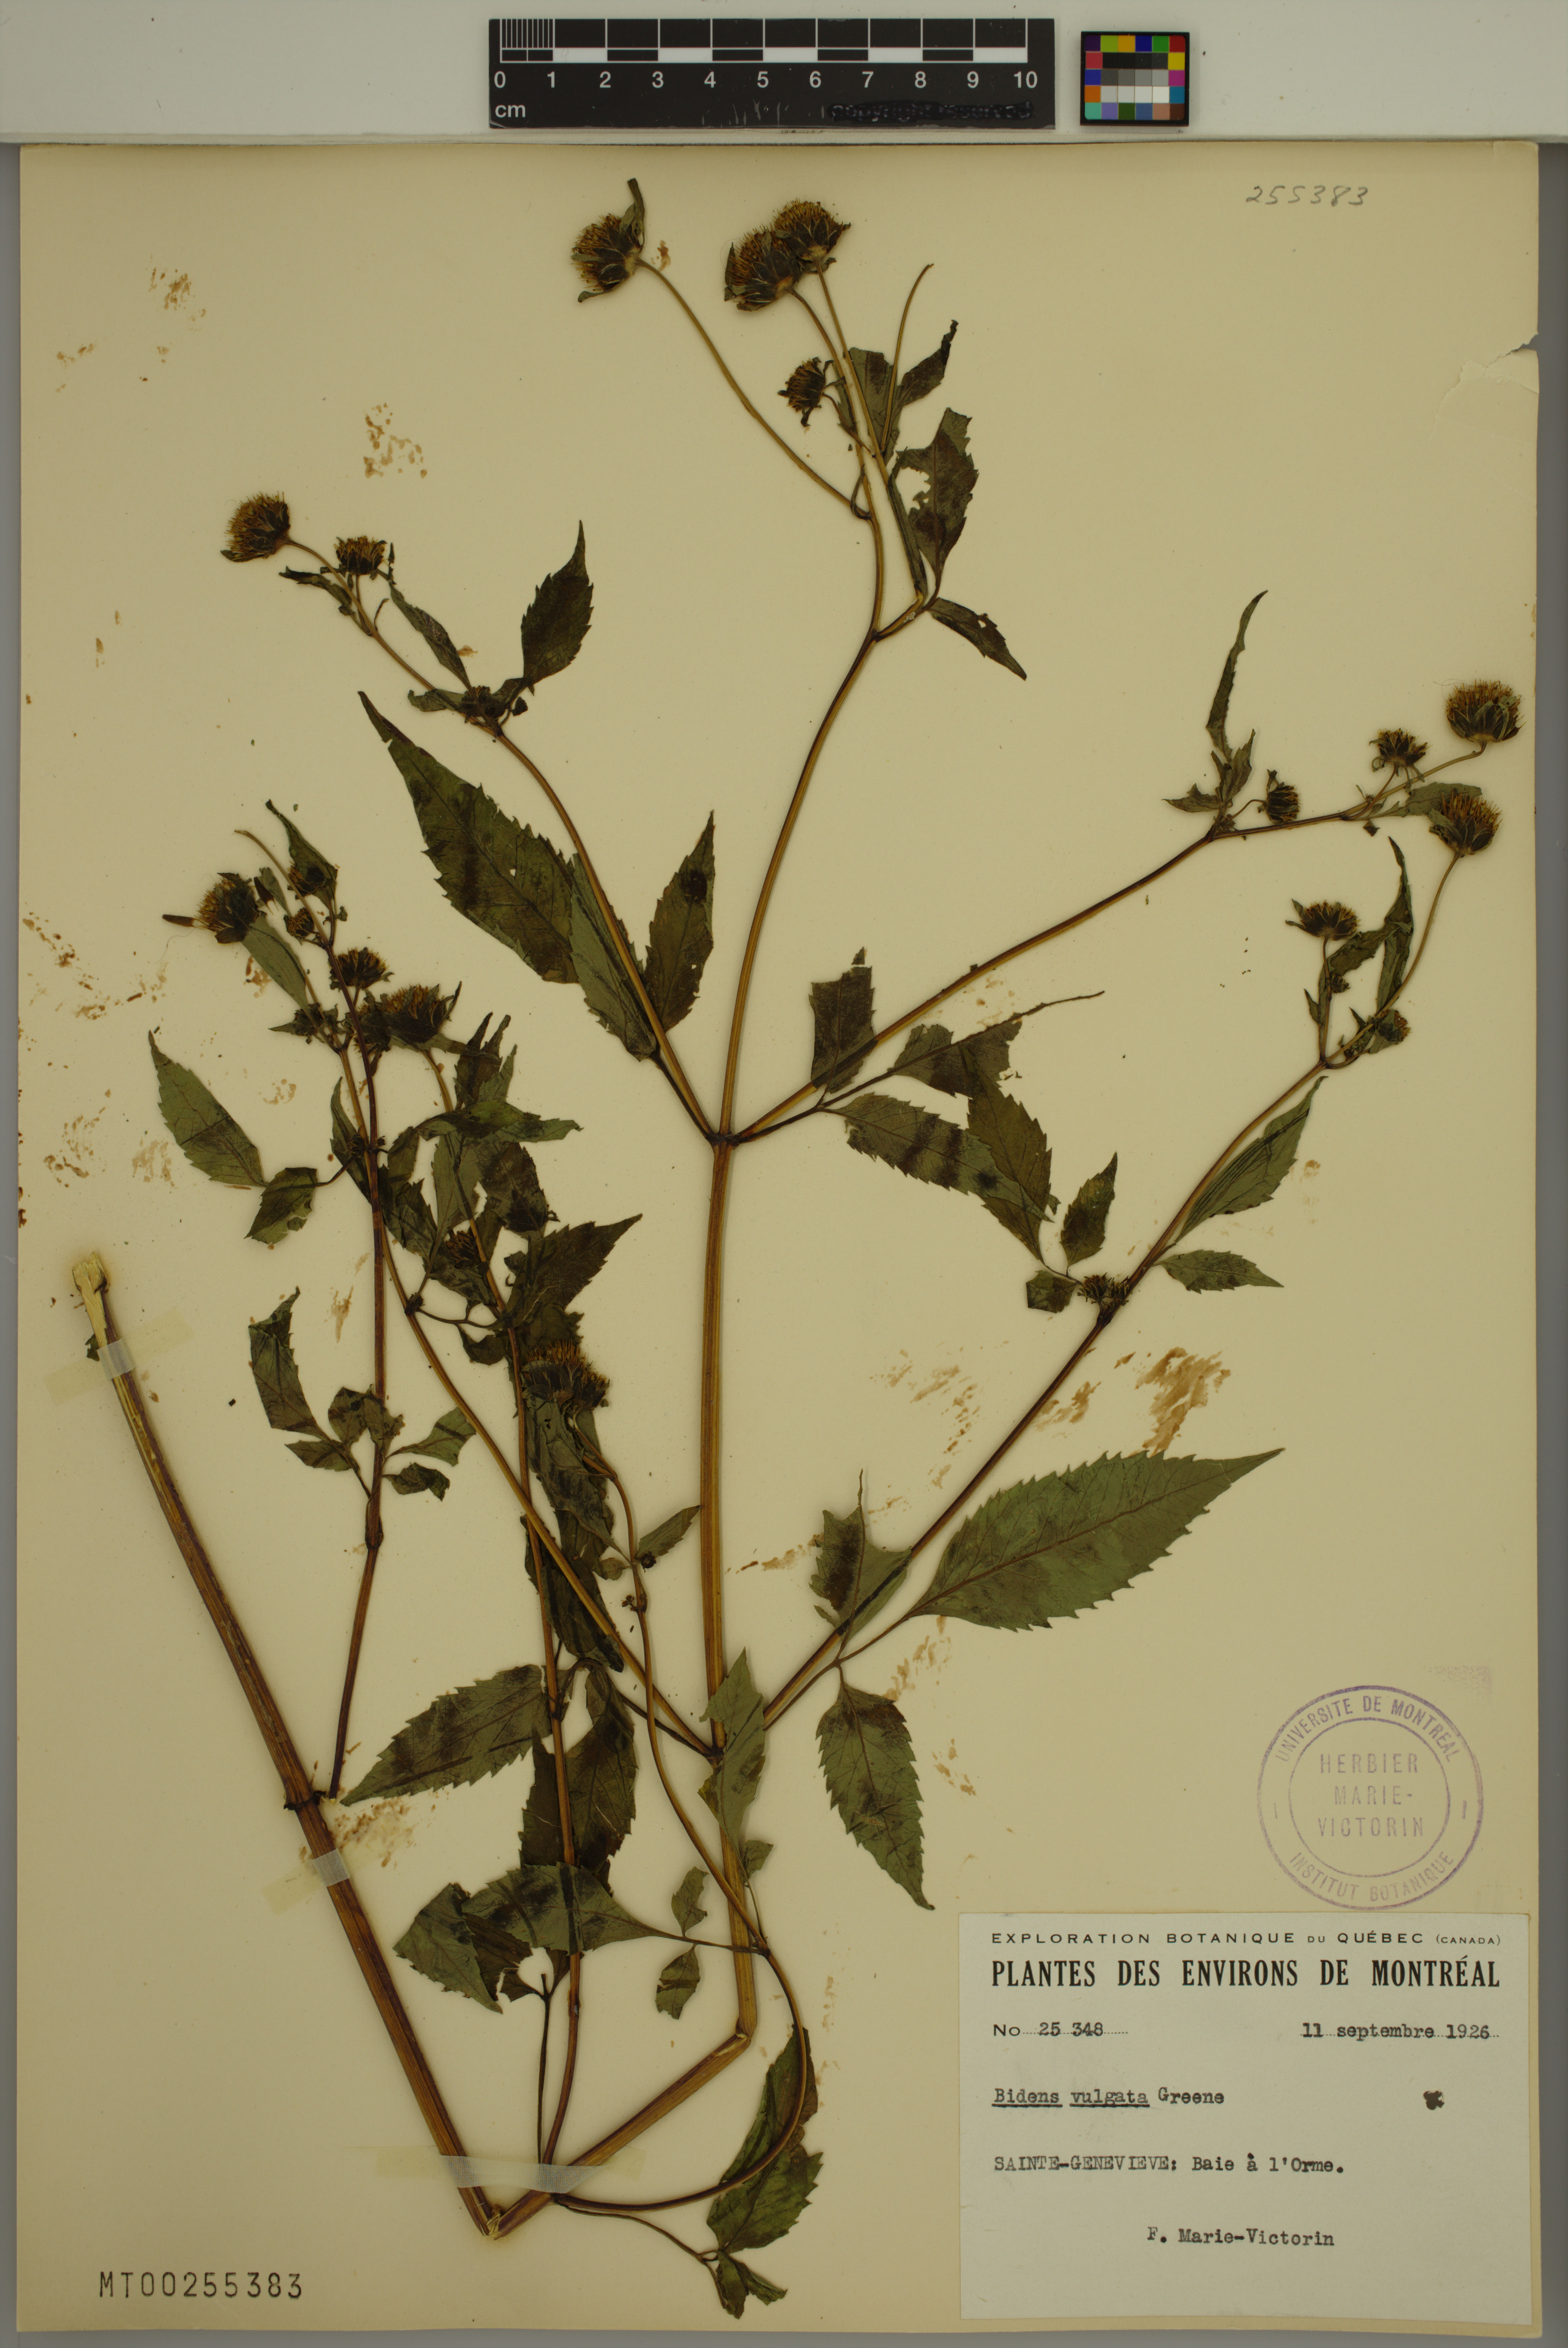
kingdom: Plantae
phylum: Tracheophyta
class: Magnoliopsida
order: Asterales
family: Asteraceae
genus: Bidens
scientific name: Bidens vulgata
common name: Tall beggarticks
